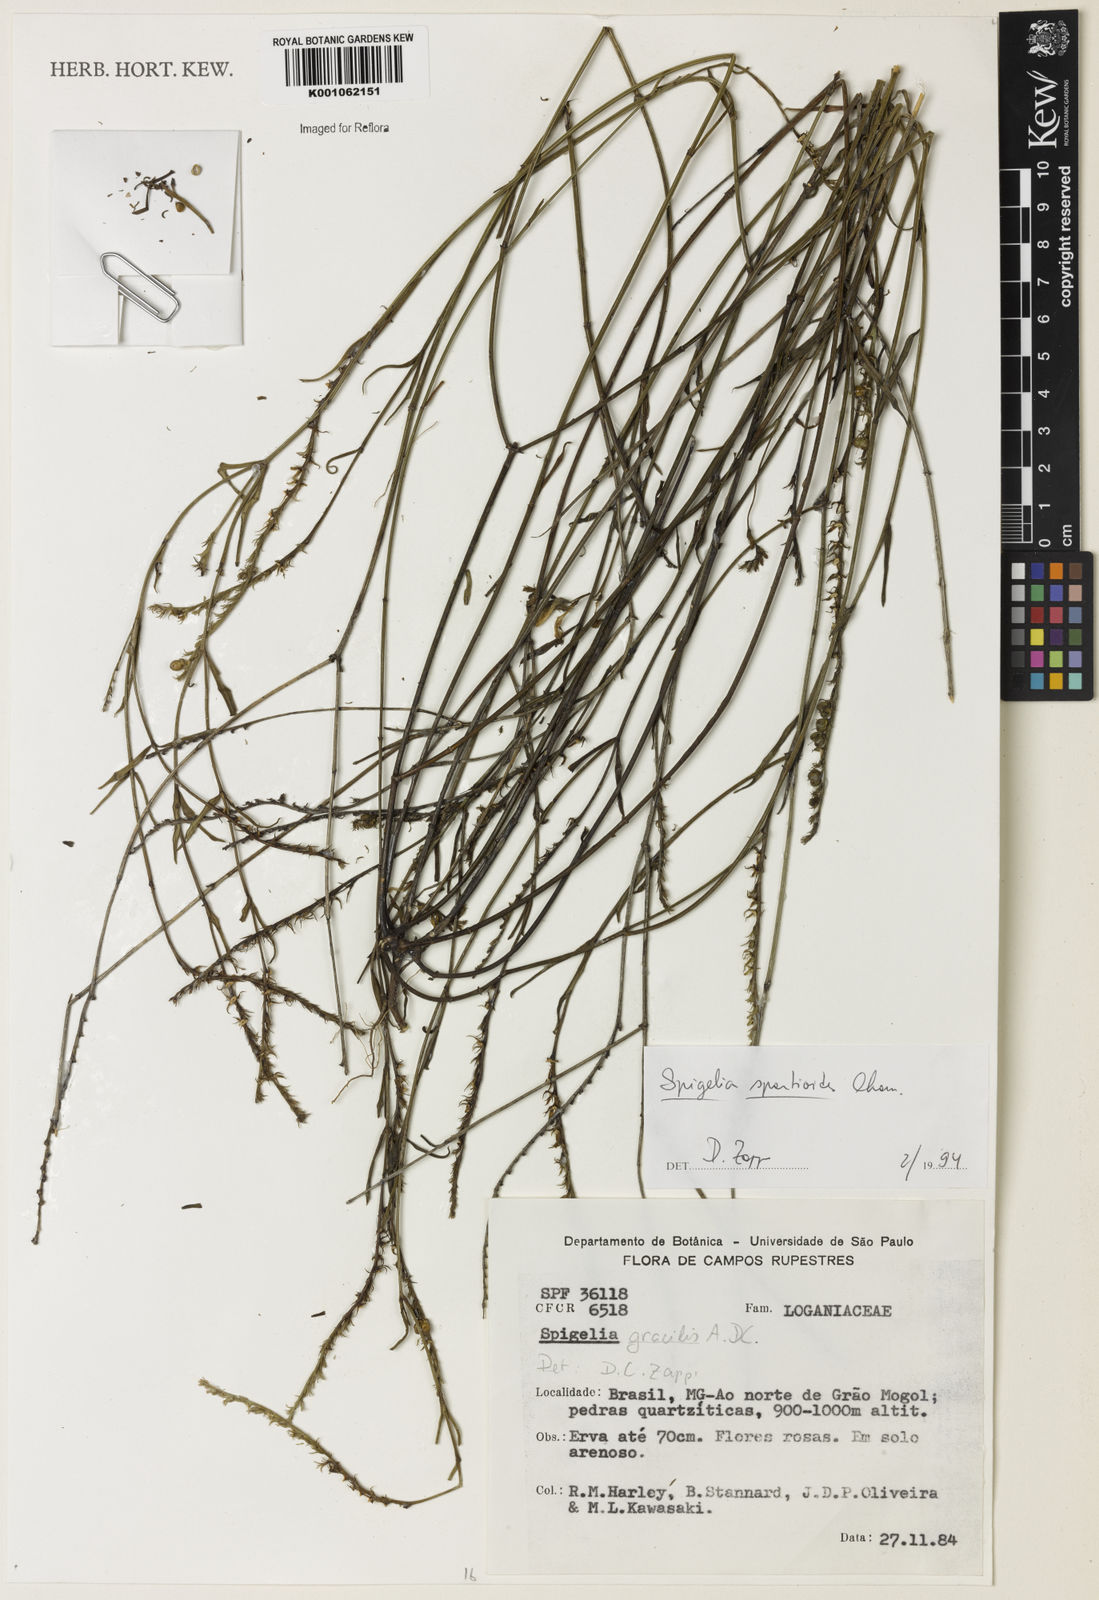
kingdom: Plantae
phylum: Tracheophyta
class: Magnoliopsida
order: Gentianales
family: Loganiaceae
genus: Spigelia
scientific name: Spigelia spartioides
